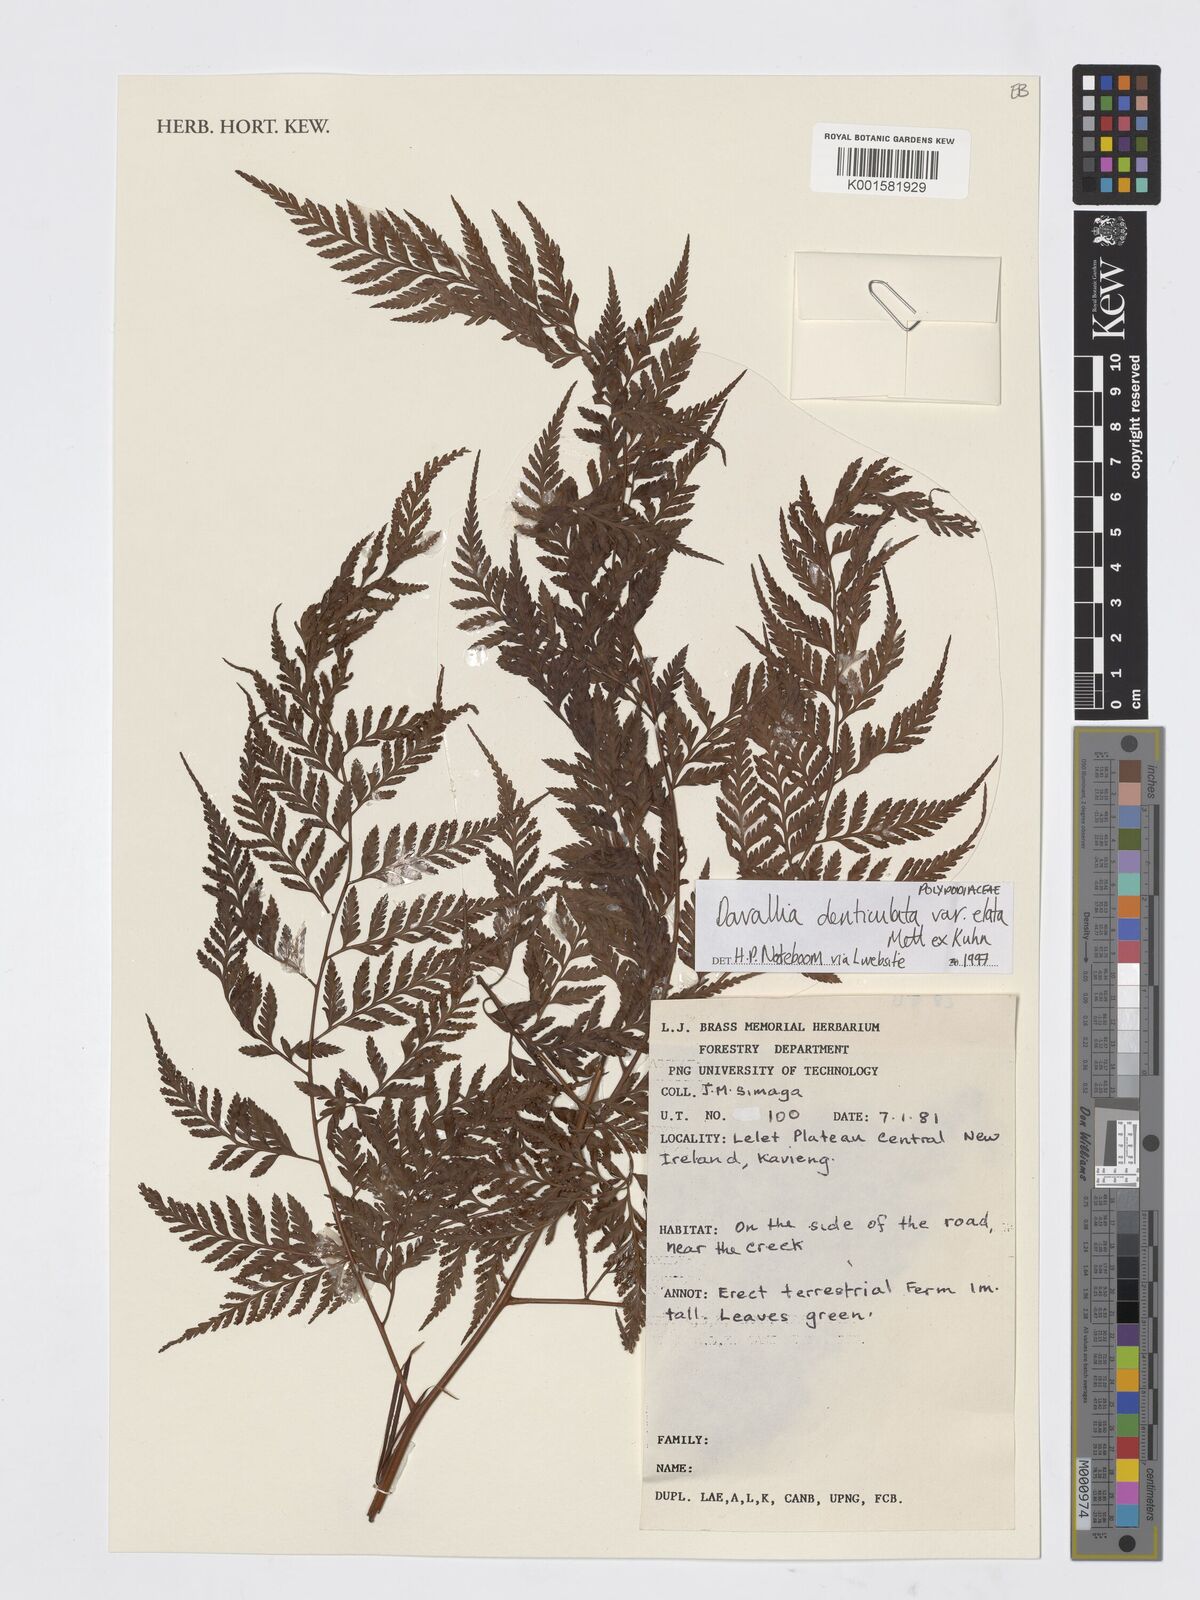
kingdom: Plantae
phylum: Tracheophyta
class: Polypodiopsida
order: Polypodiales
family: Davalliaceae
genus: Davallia
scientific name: Davallia denticulata
